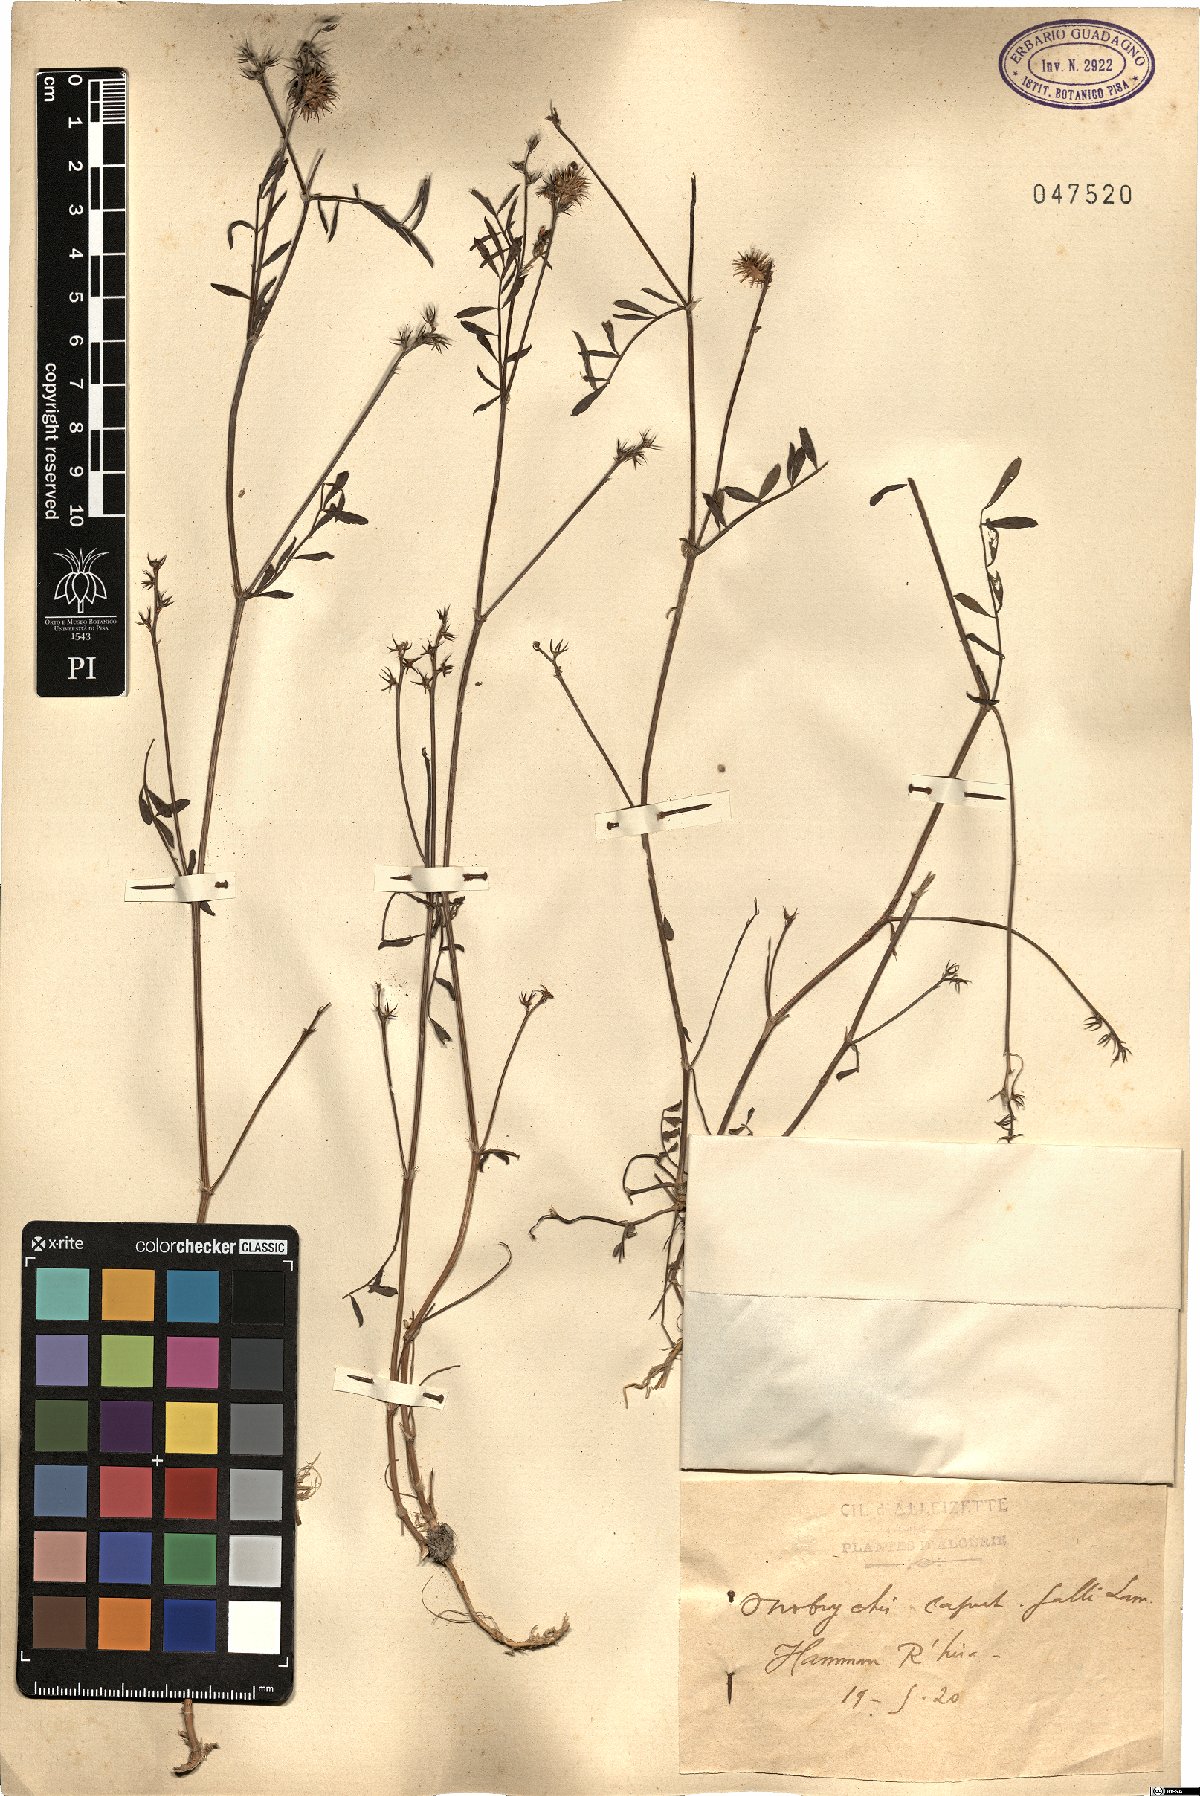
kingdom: Plantae
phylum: Tracheophyta
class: Magnoliopsida
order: Fabales
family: Fabaceae
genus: Onobrychis
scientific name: Onobrychis caput-galli
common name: Cockscomb sainfoin
